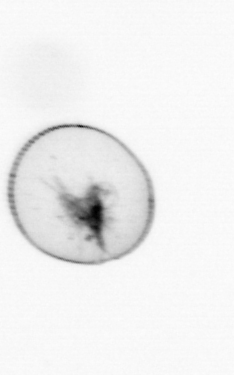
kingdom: Chromista
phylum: Myzozoa
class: Dinophyceae
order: Noctilucales
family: Noctilucaceae
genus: Noctiluca
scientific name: Noctiluca scintillans
